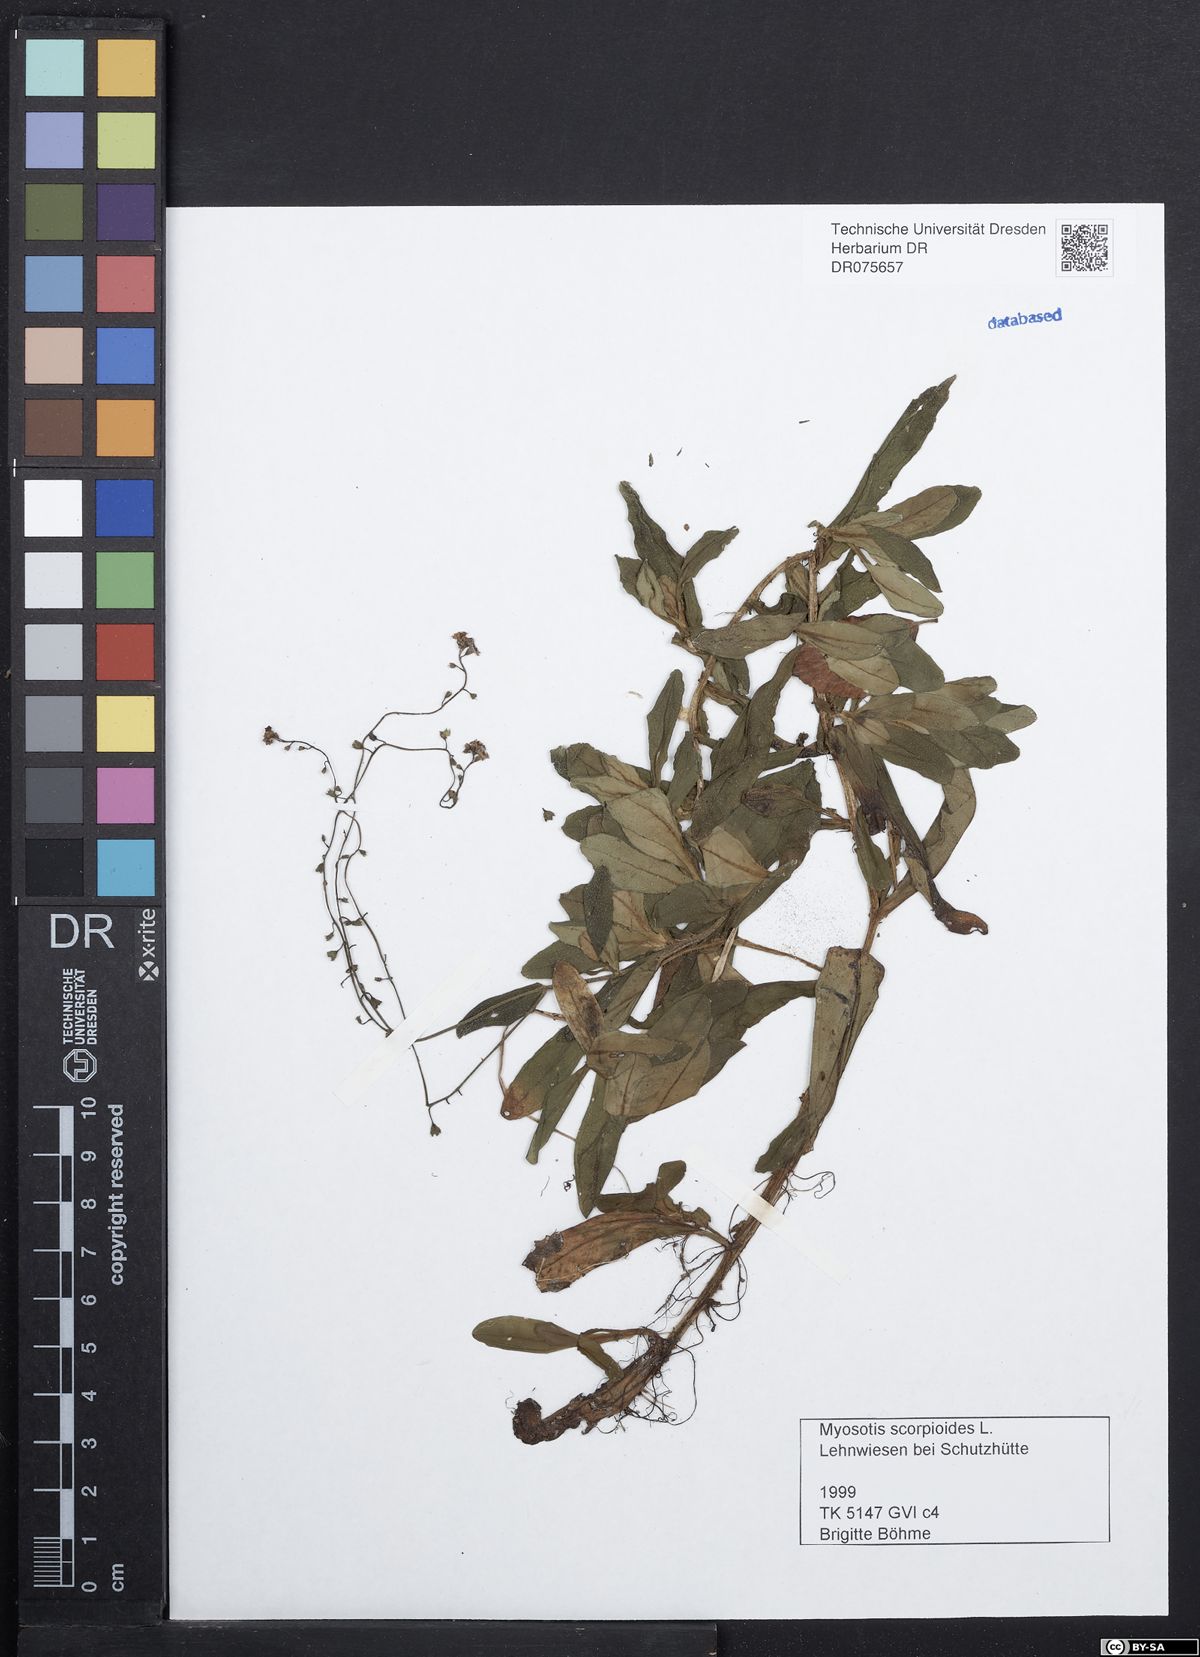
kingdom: Plantae
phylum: Tracheophyta
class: Magnoliopsida
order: Boraginales
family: Boraginaceae
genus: Myosotis
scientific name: Myosotis scorpioides
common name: Water forget-me-not
